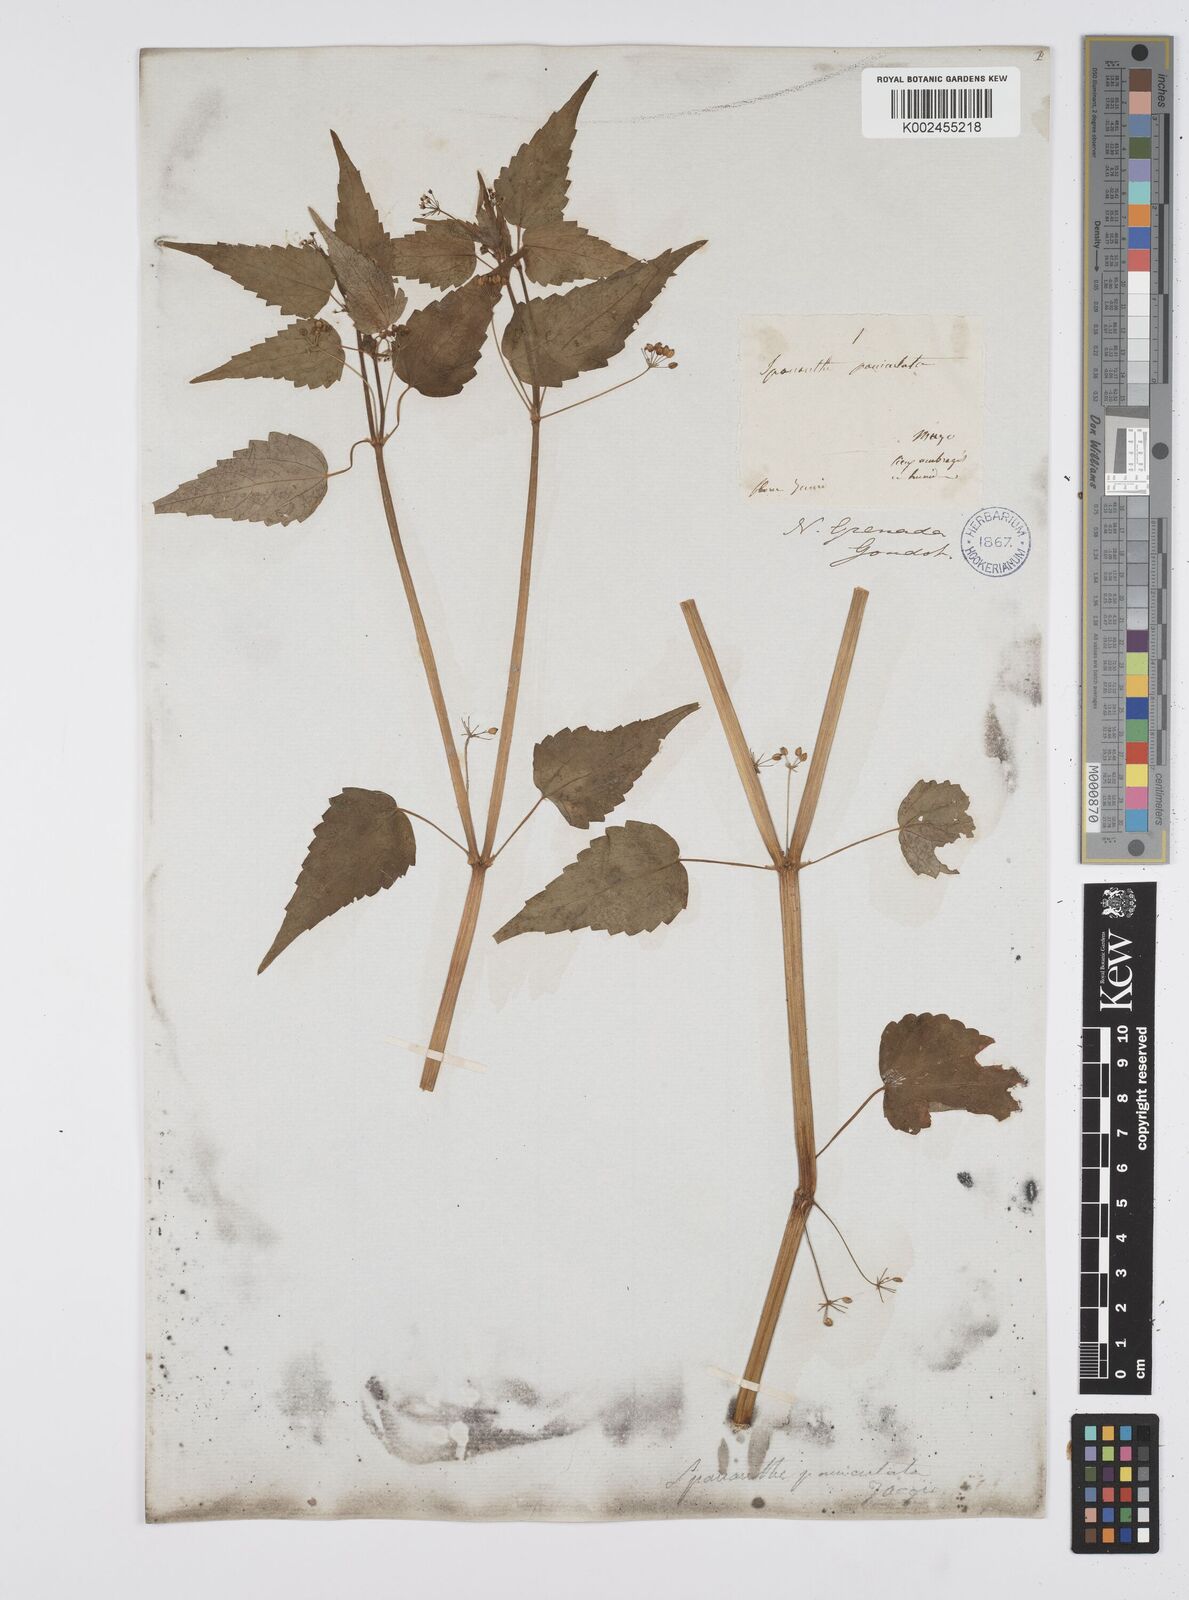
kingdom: Plantae
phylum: Tracheophyta
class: Magnoliopsida
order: Apiales
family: Apiaceae
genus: Azorella
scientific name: Azorella
